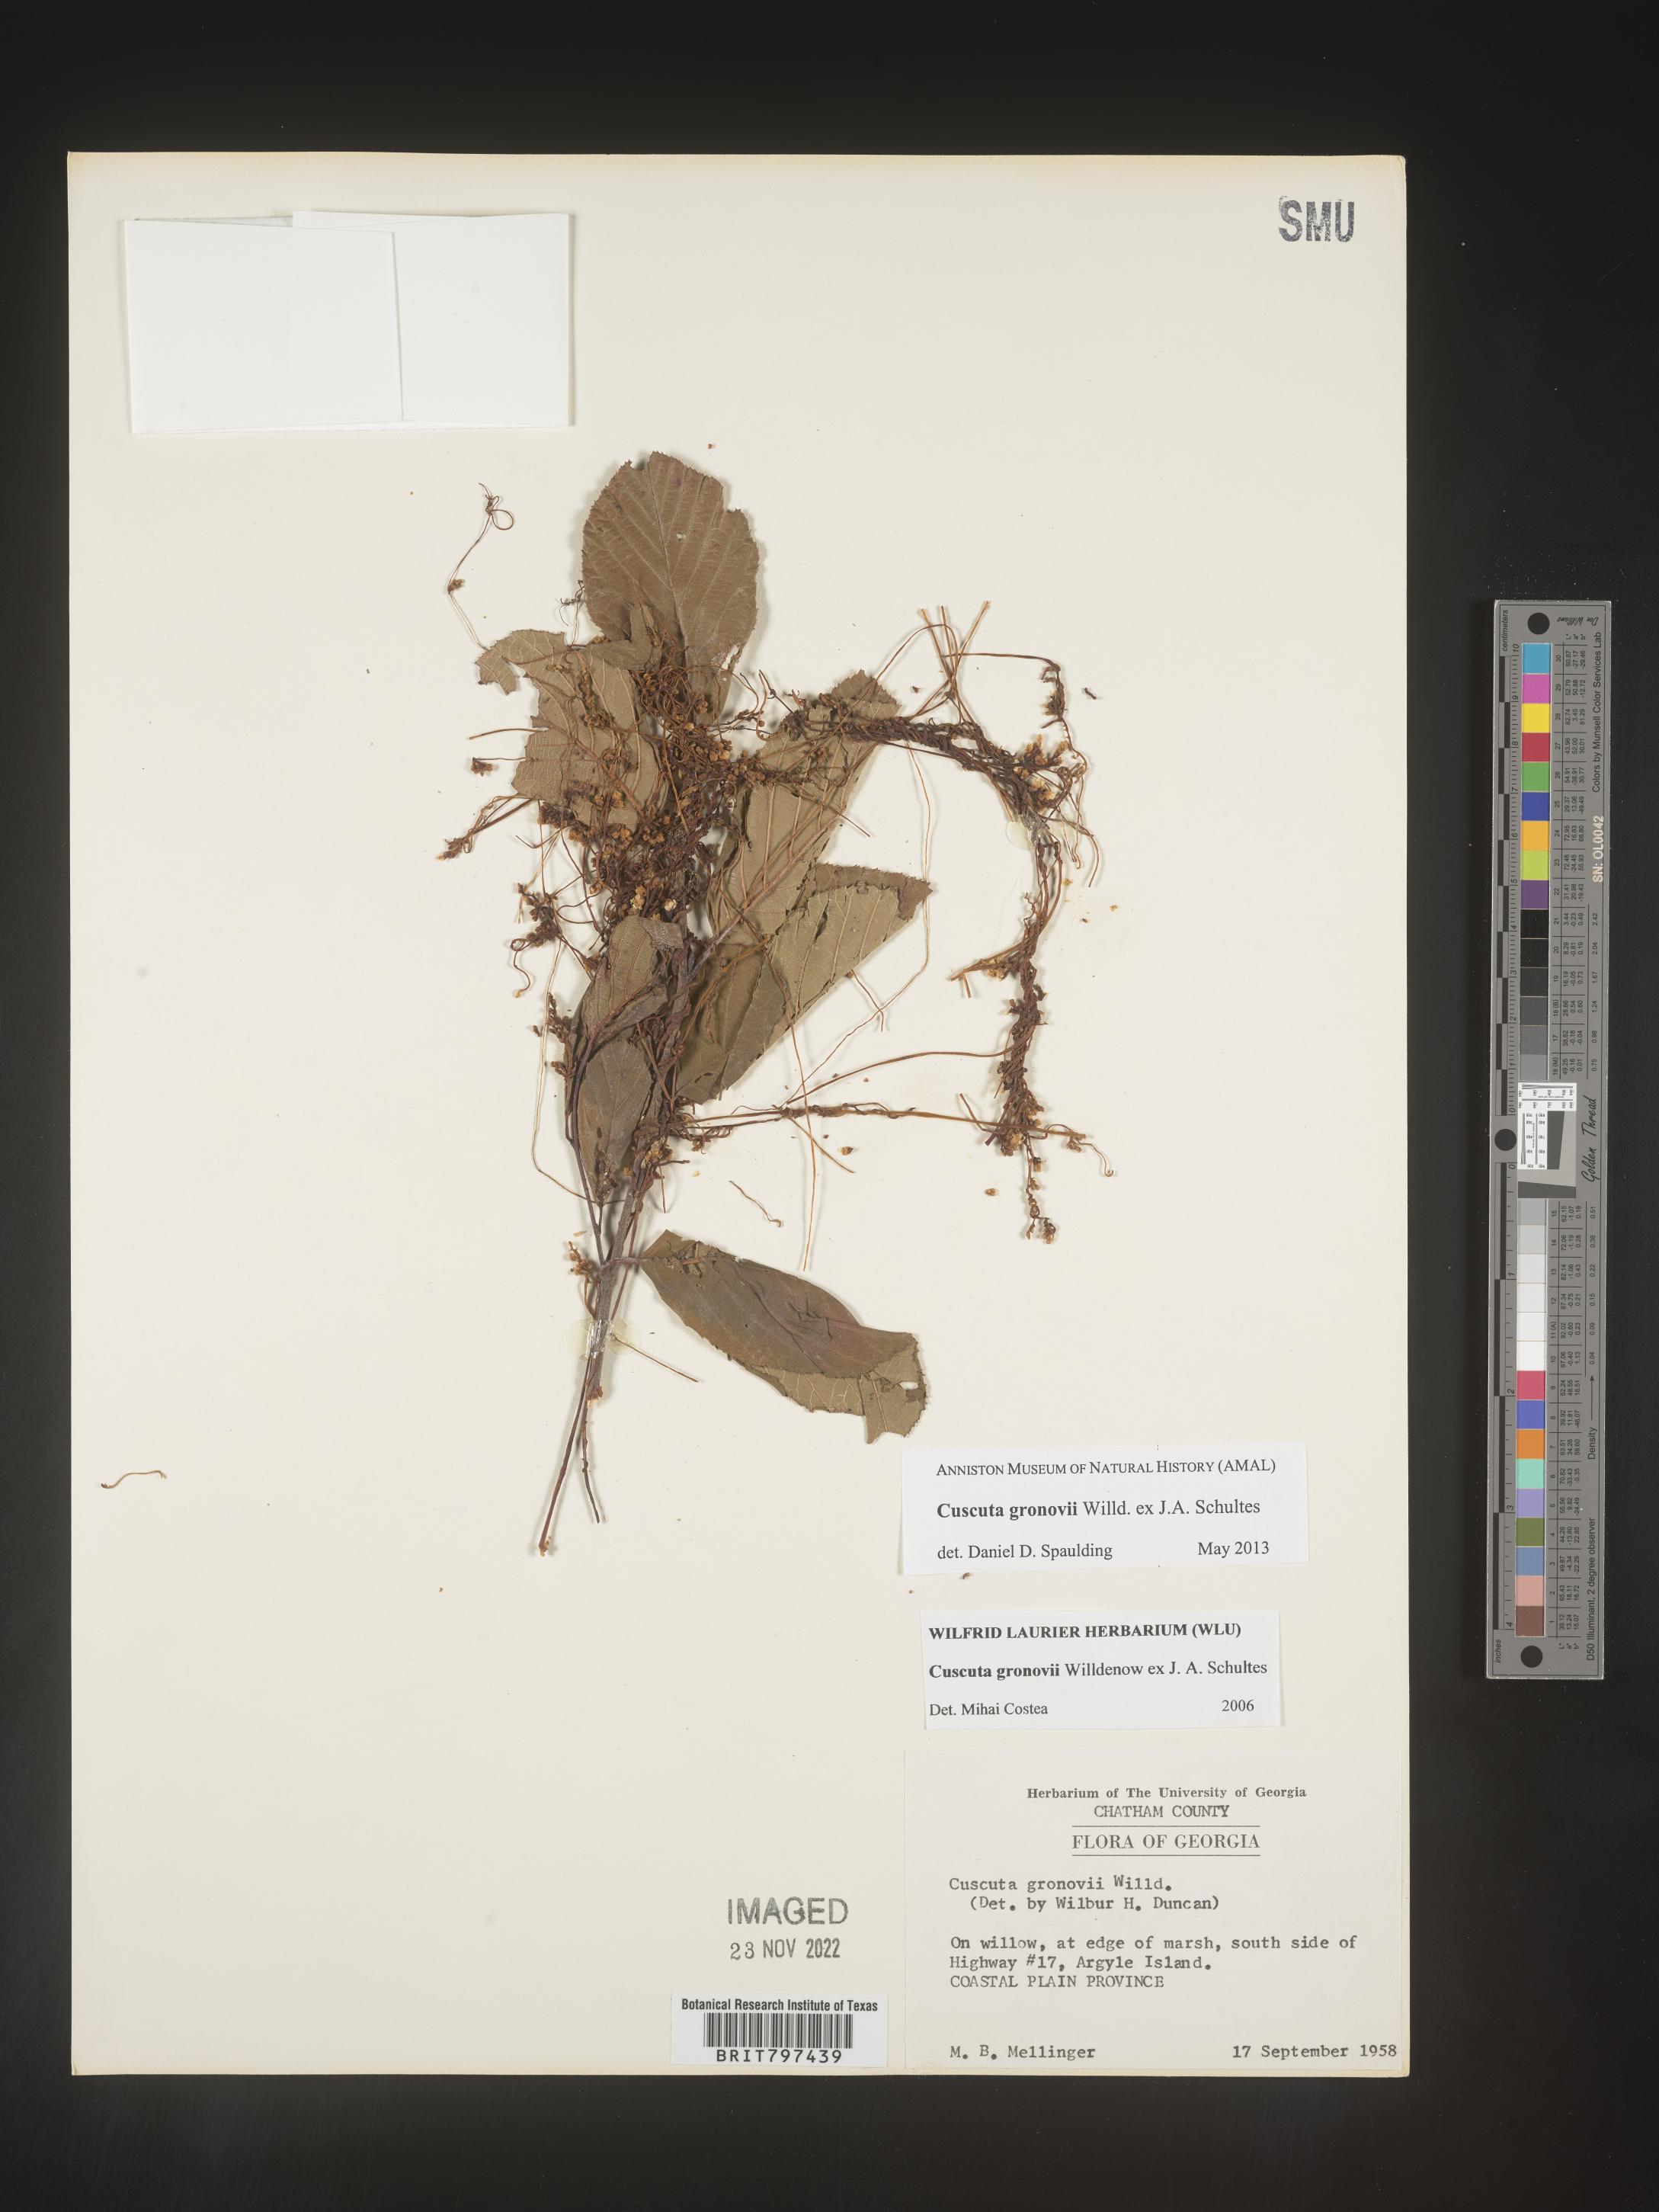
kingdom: Plantae
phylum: Tracheophyta
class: Magnoliopsida
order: Solanales
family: Convolvulaceae
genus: Cuscuta
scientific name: Cuscuta gronovii
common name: Common dodder
